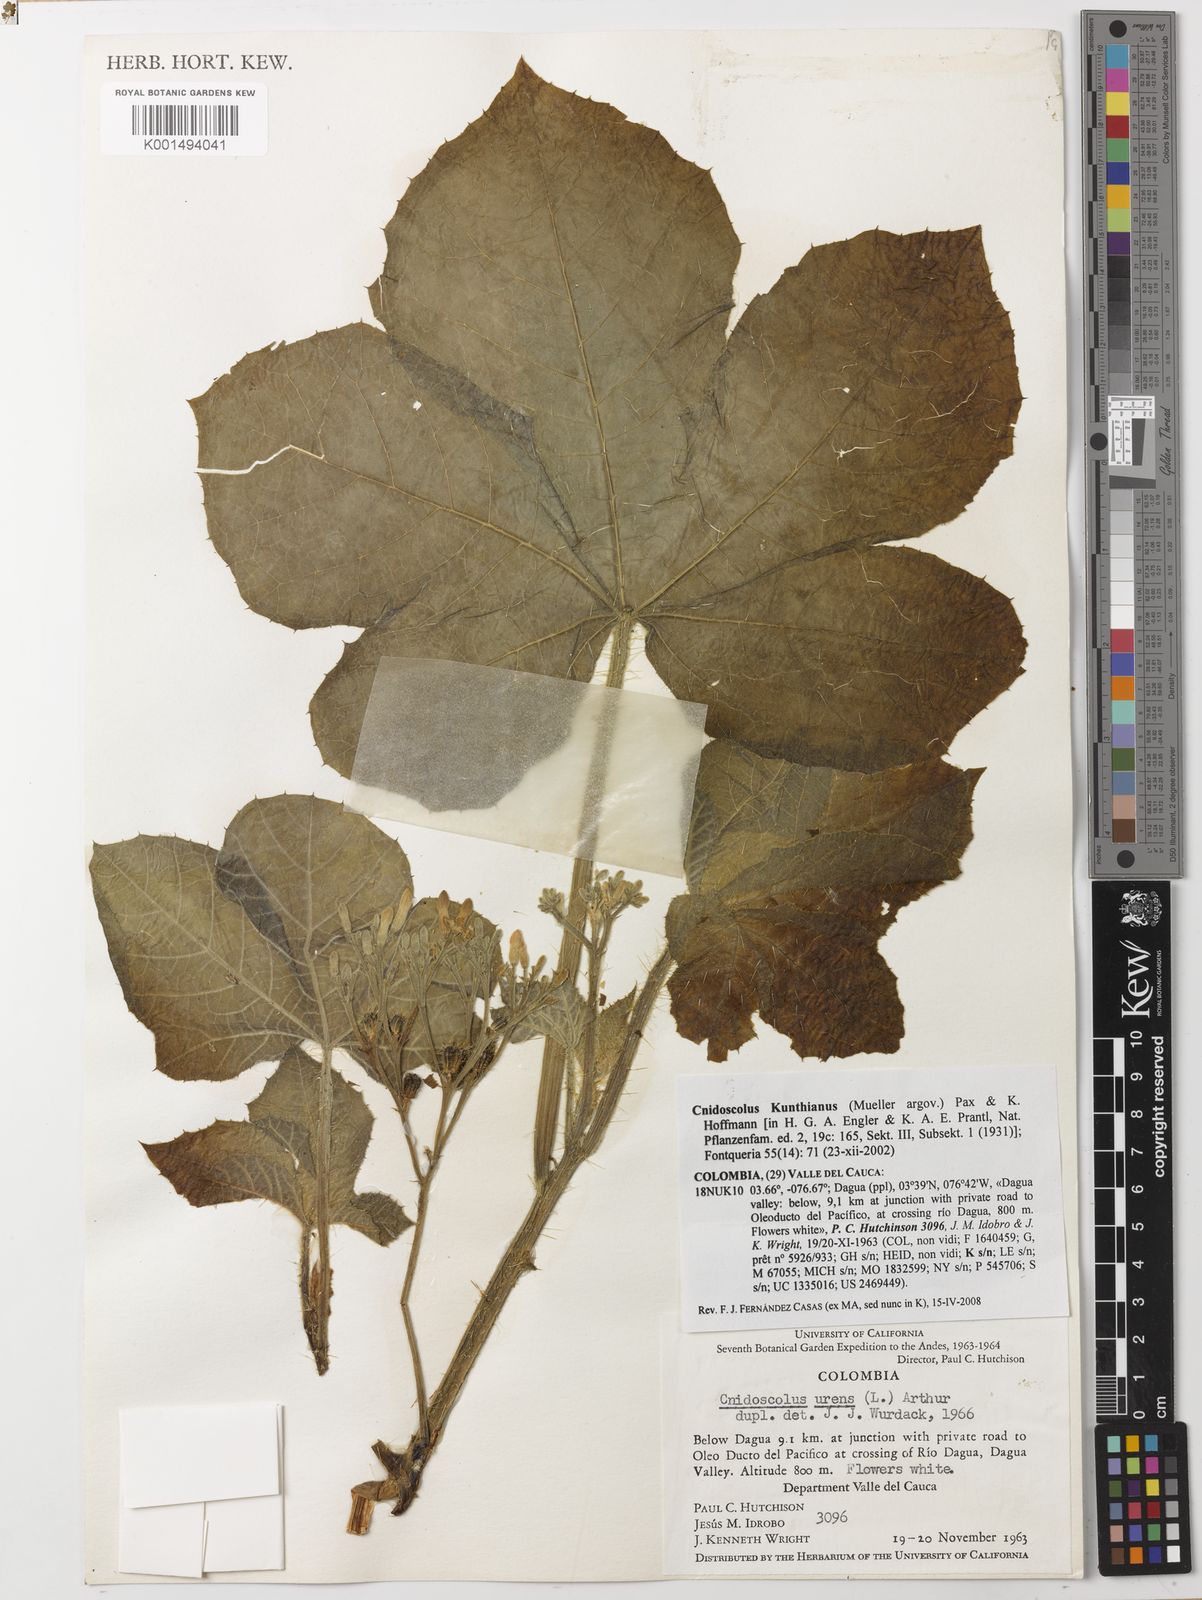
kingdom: Plantae
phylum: Tracheophyta
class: Magnoliopsida
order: Malpighiales
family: Euphorbiaceae
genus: Cnidoscolus
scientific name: Cnidoscolus kunthianus
